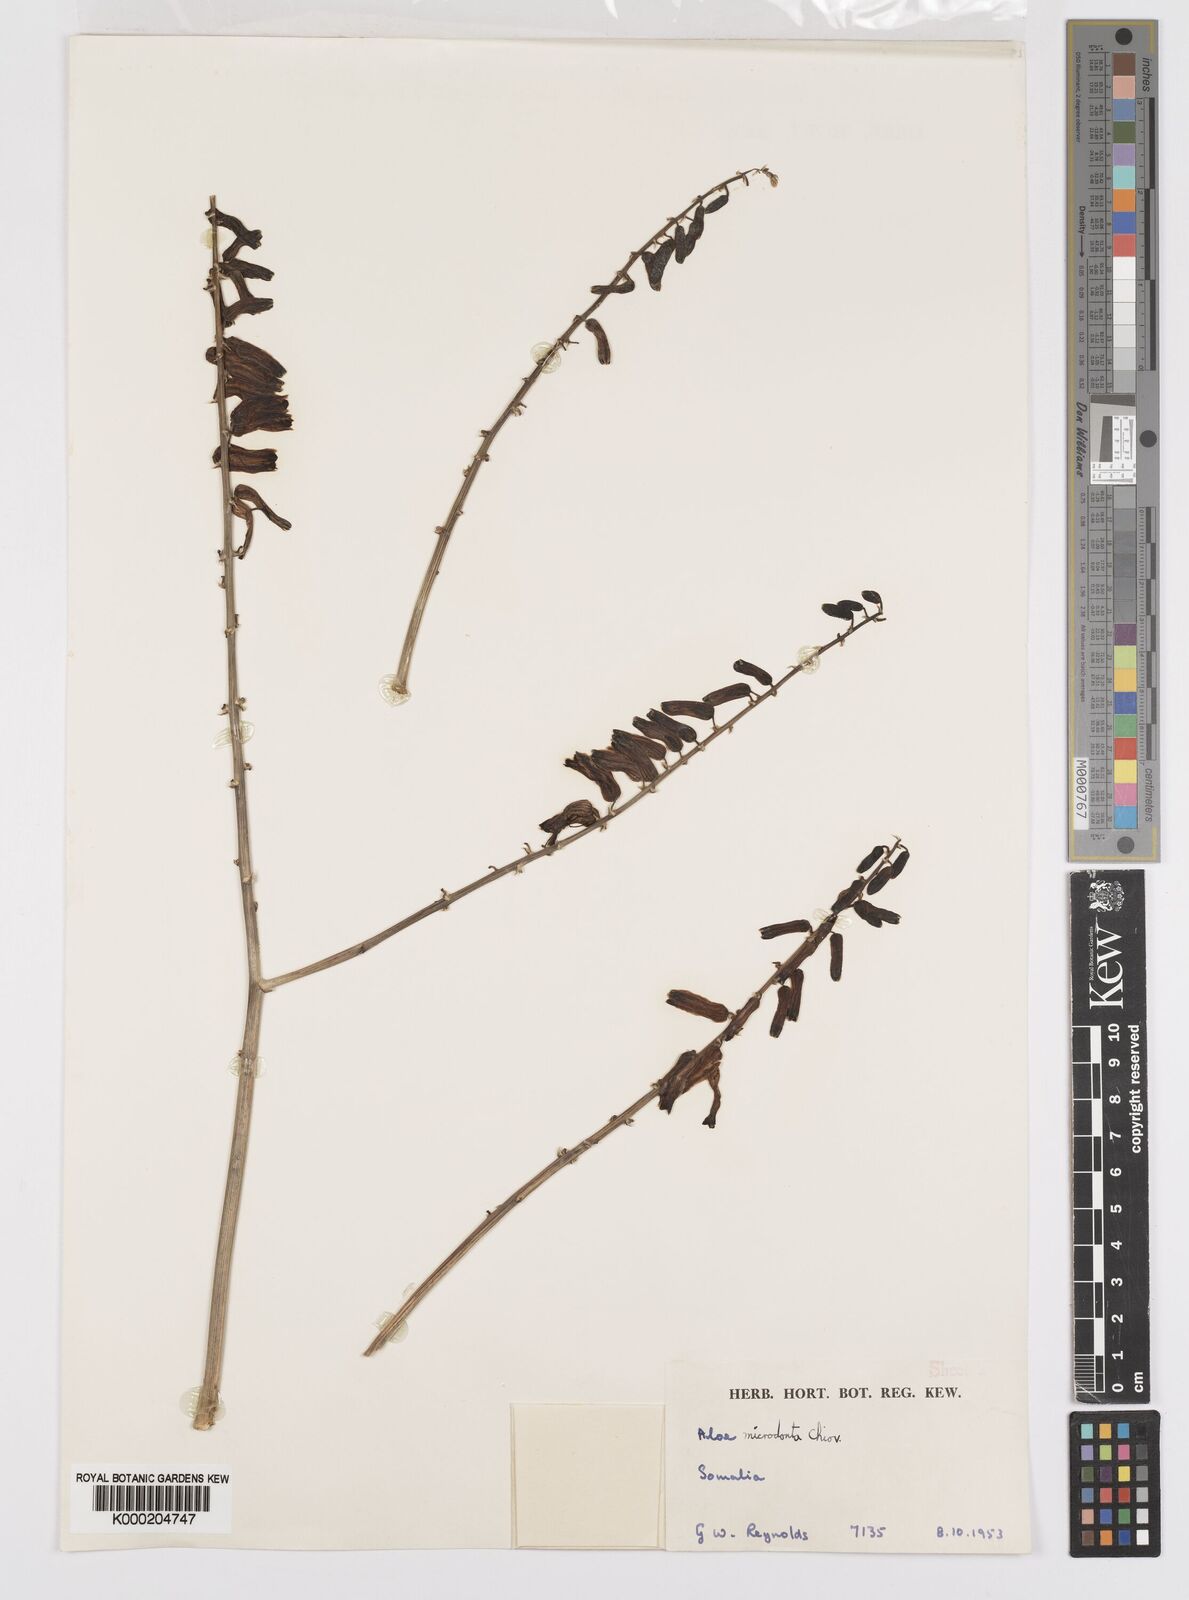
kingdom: Plantae
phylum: Tracheophyta
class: Liliopsida
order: Asparagales
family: Asphodelaceae
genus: Aloe
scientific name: Aloe microdonta
